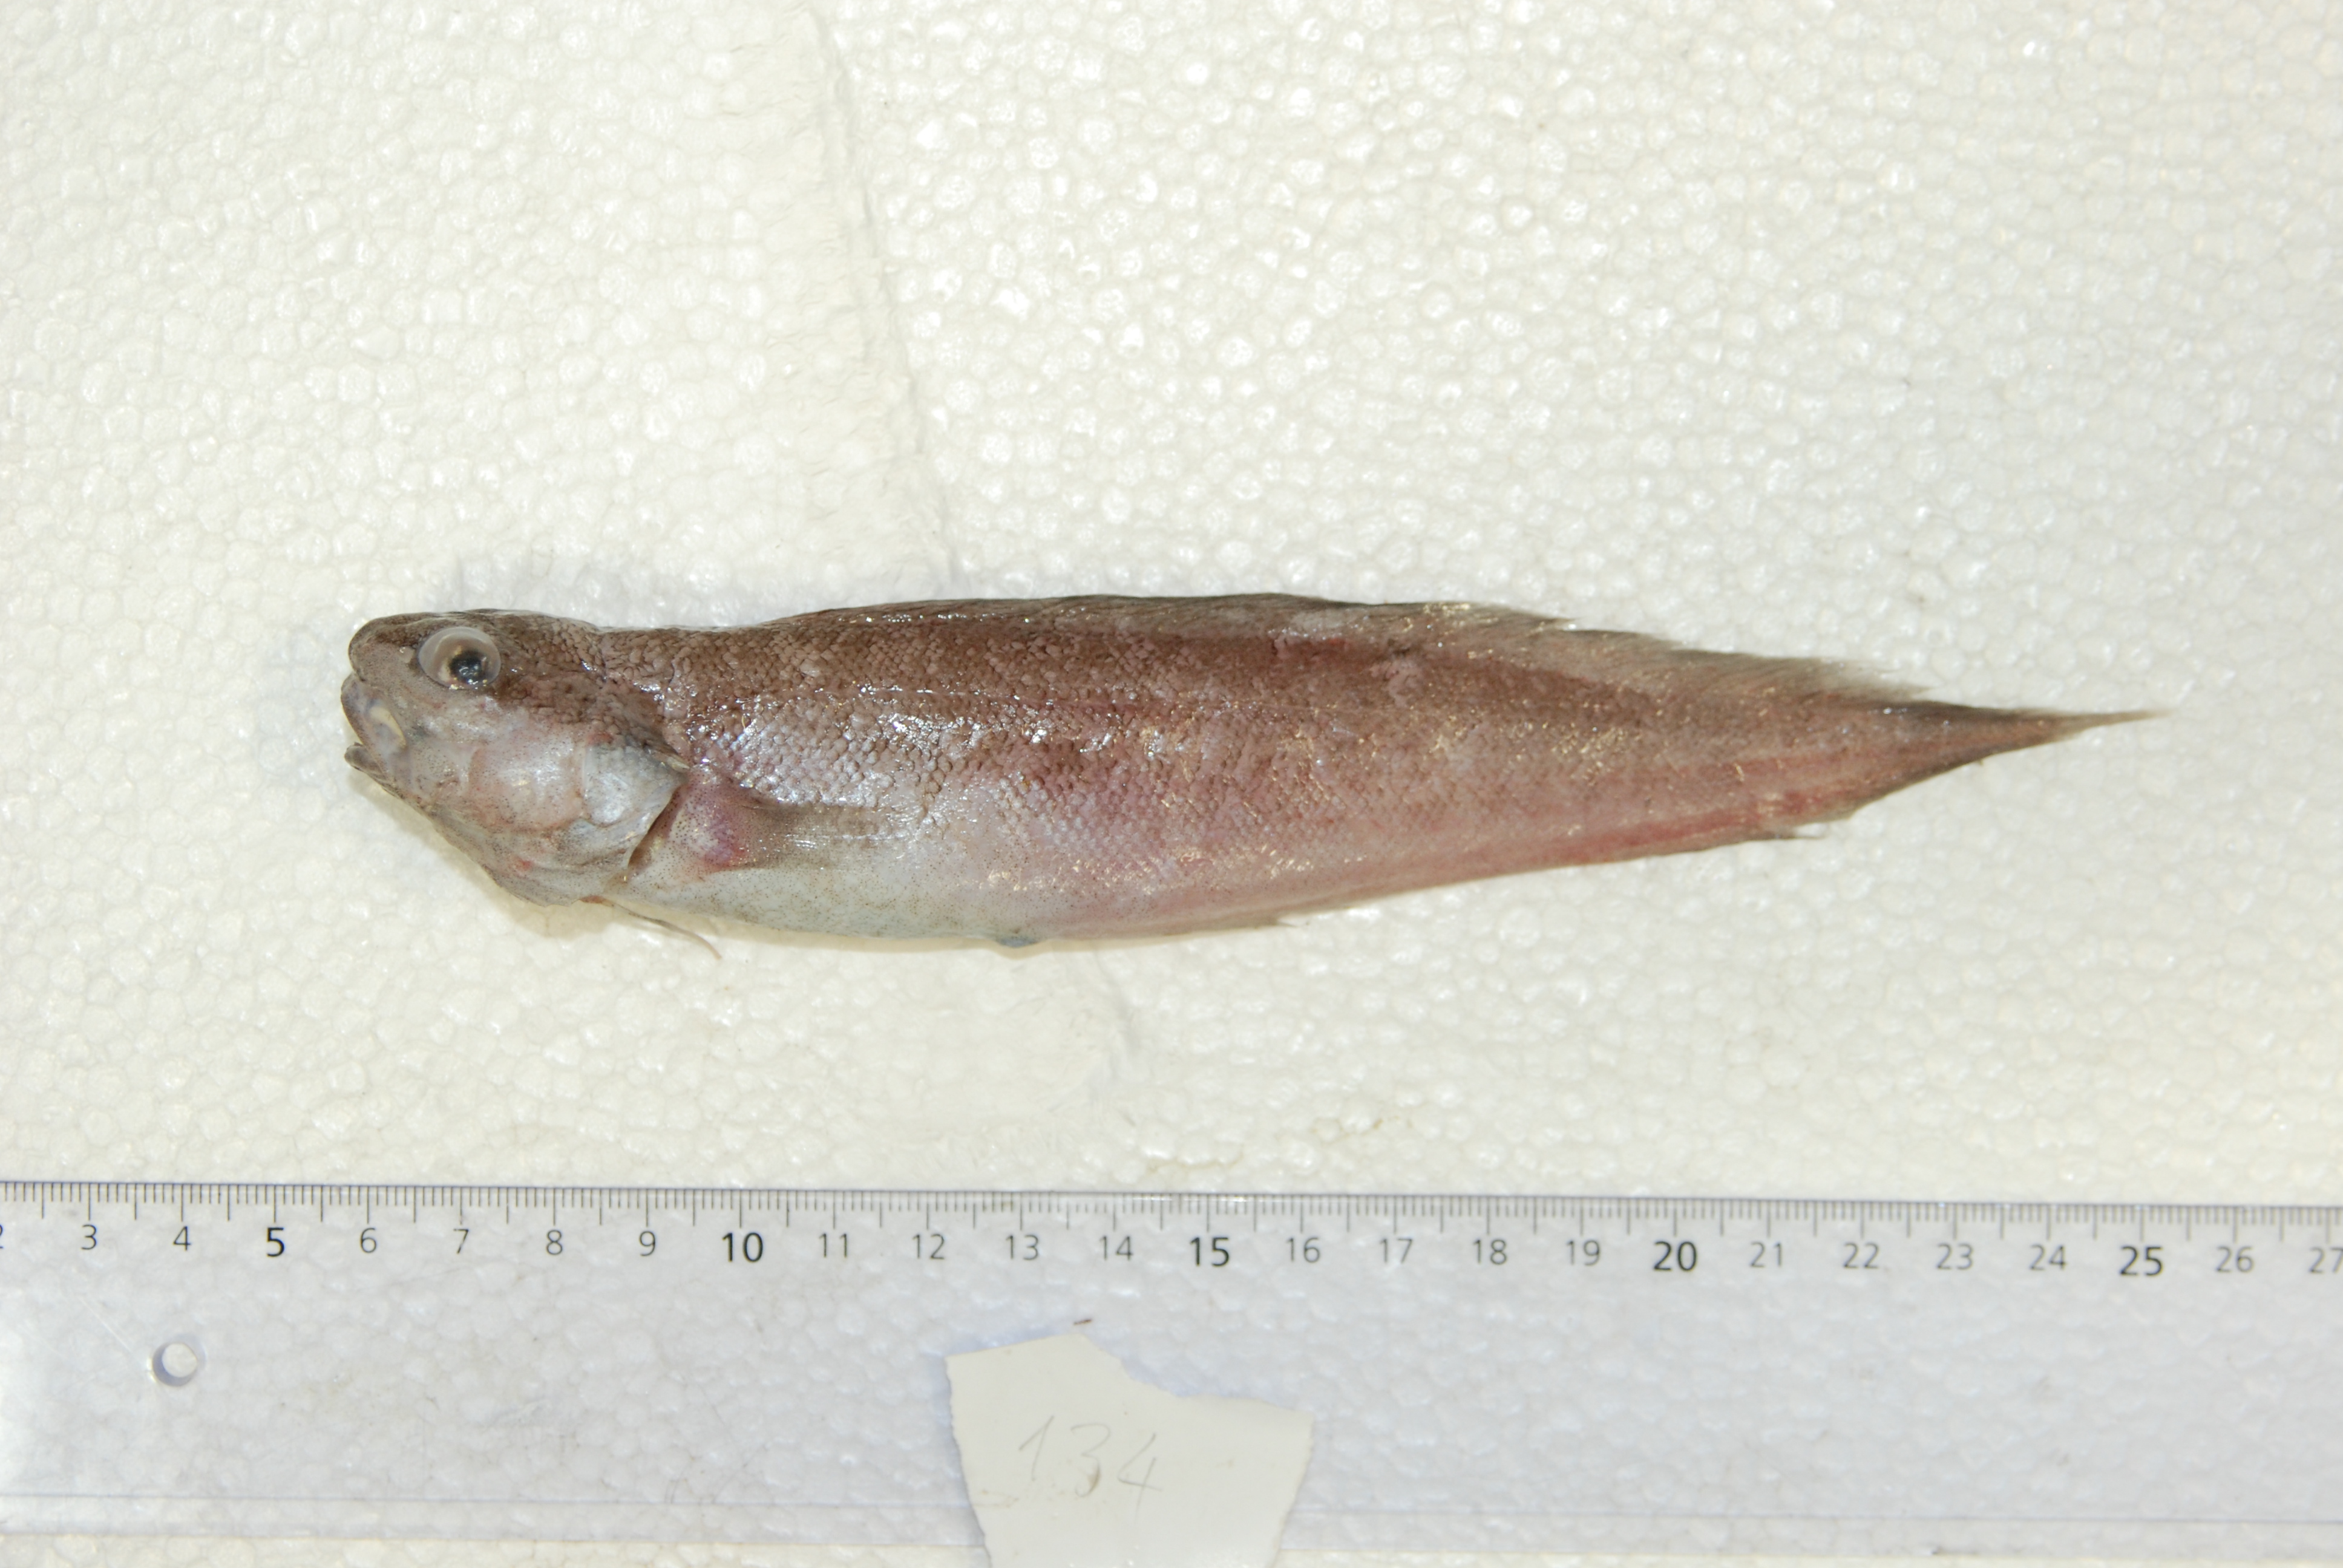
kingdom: Animalia
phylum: Chordata
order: Ophidiiformes
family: Ophidiidae
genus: Neobythites
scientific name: Neobythites vityazi
